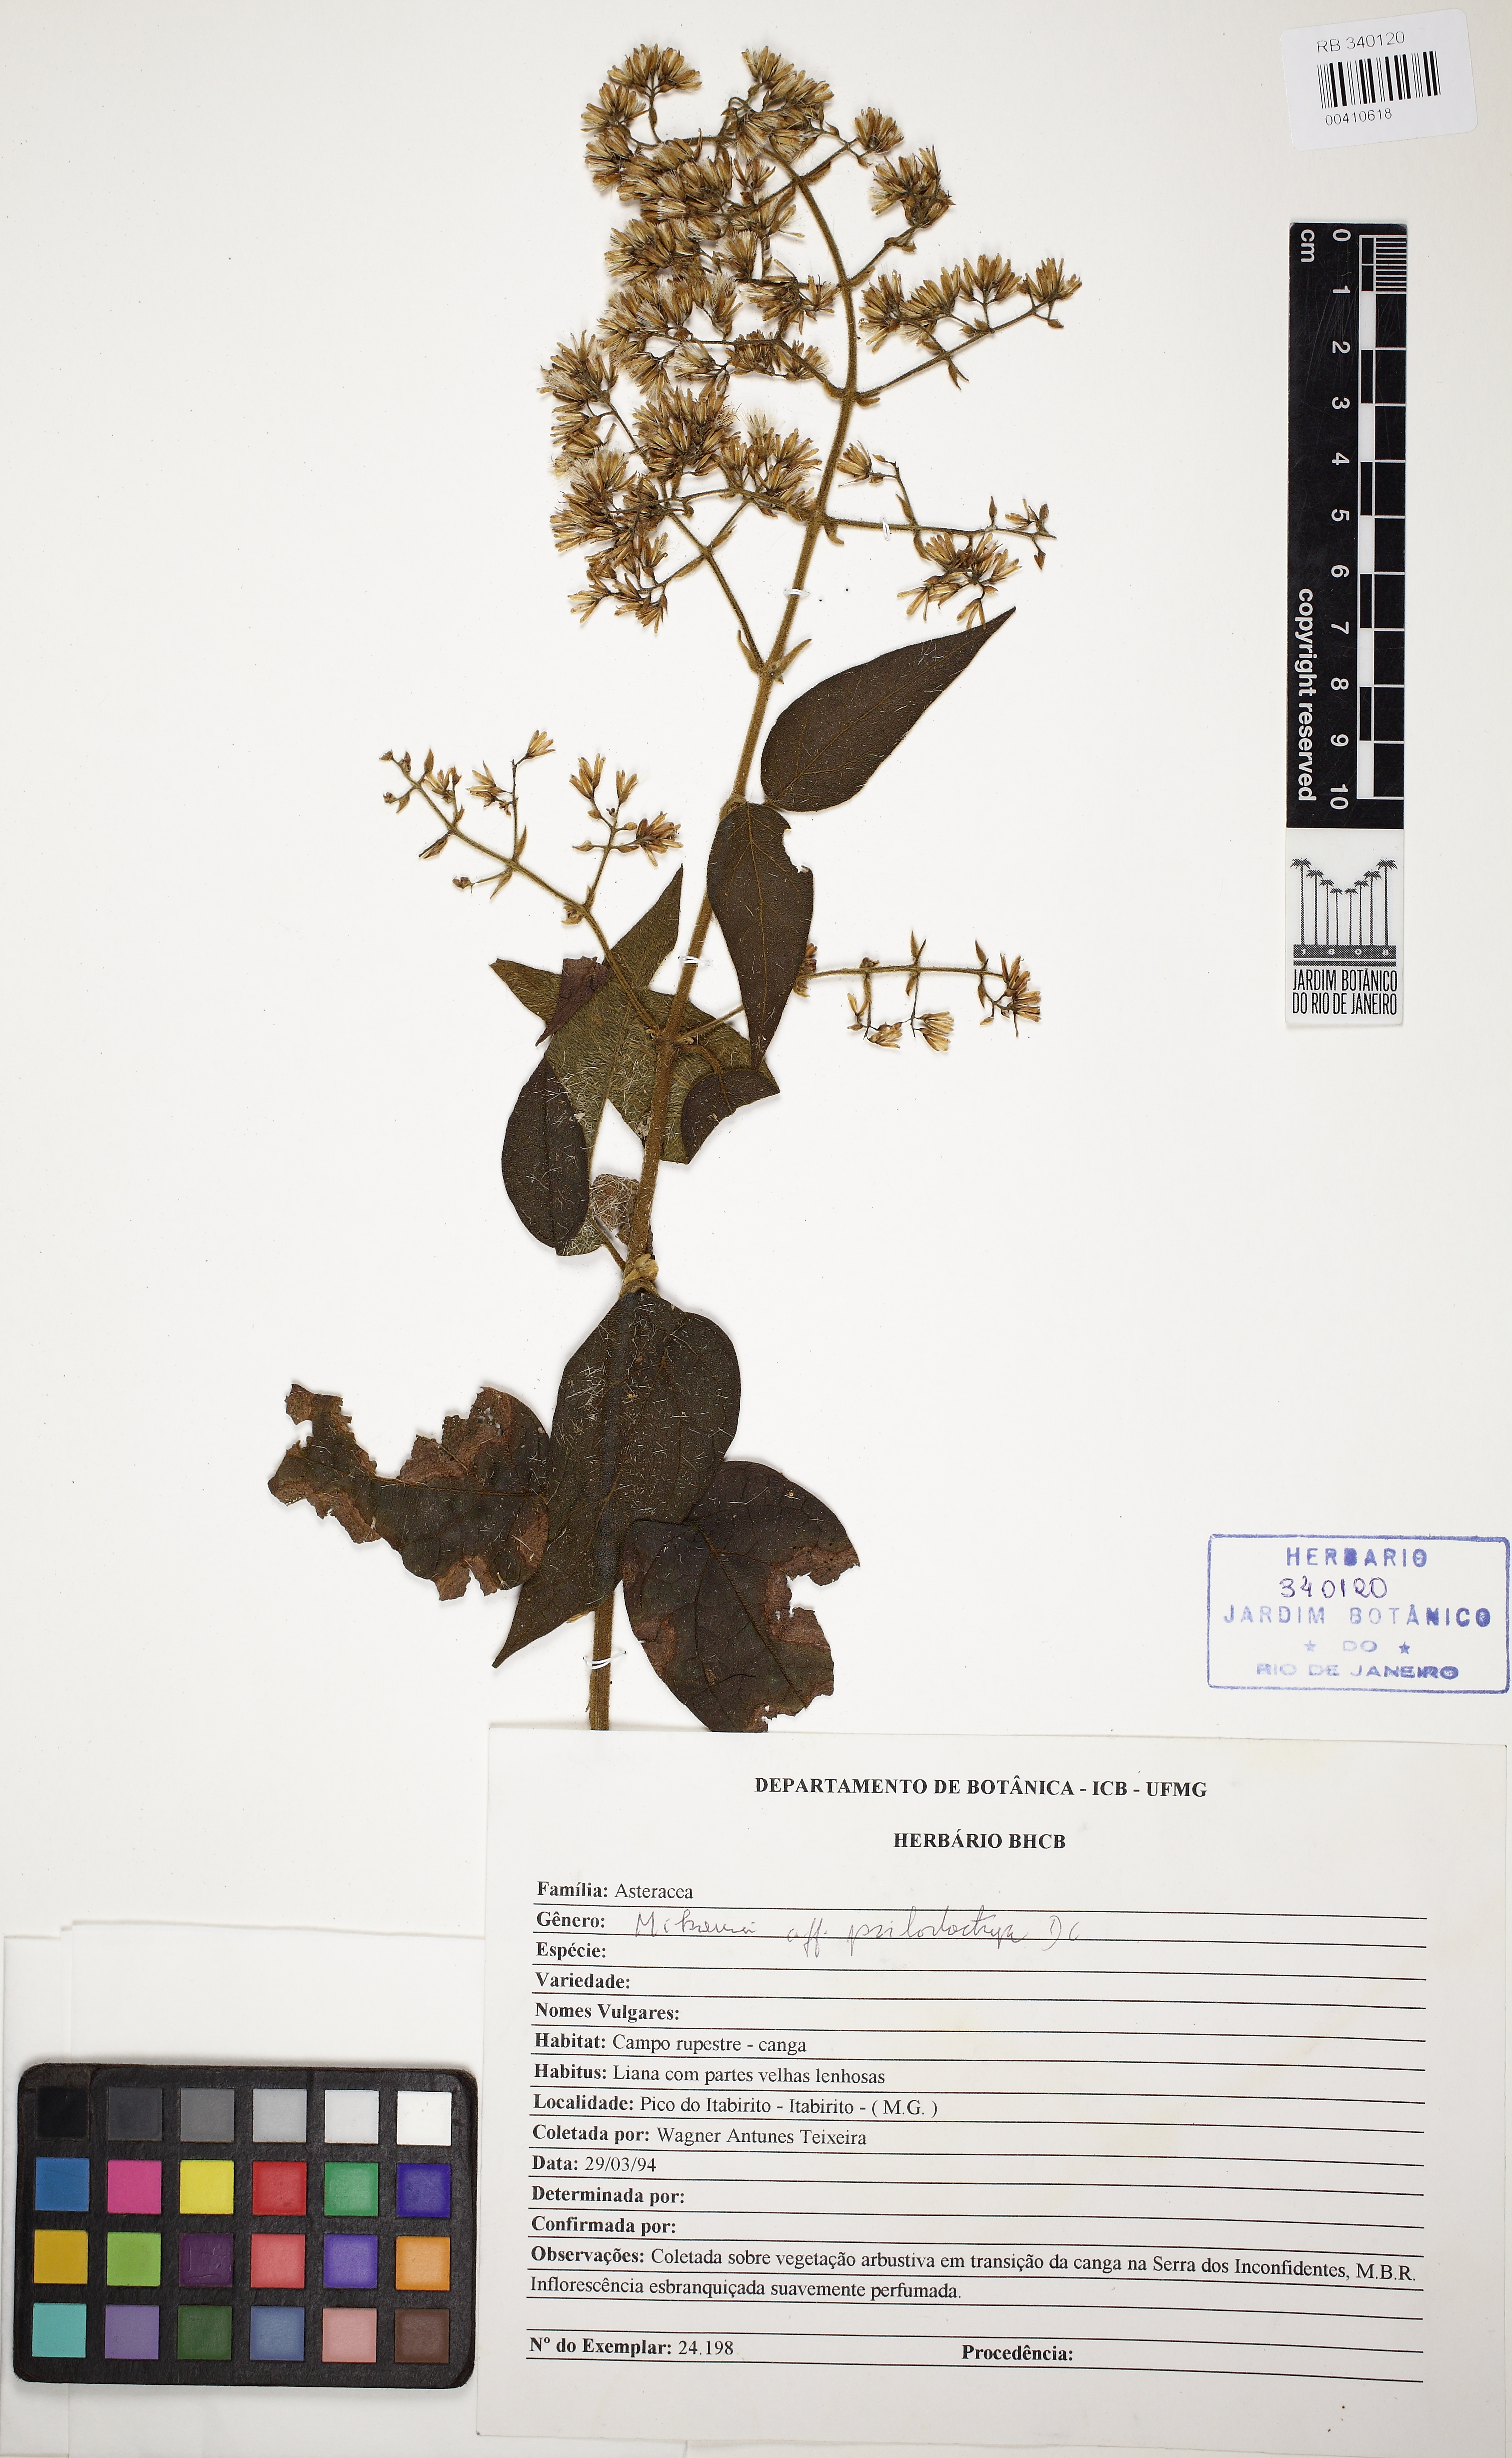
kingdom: Plantae
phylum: Tracheophyta
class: Magnoliopsida
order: Asterales
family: Asteraceae
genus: Mikania
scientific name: Mikania argyreiae
